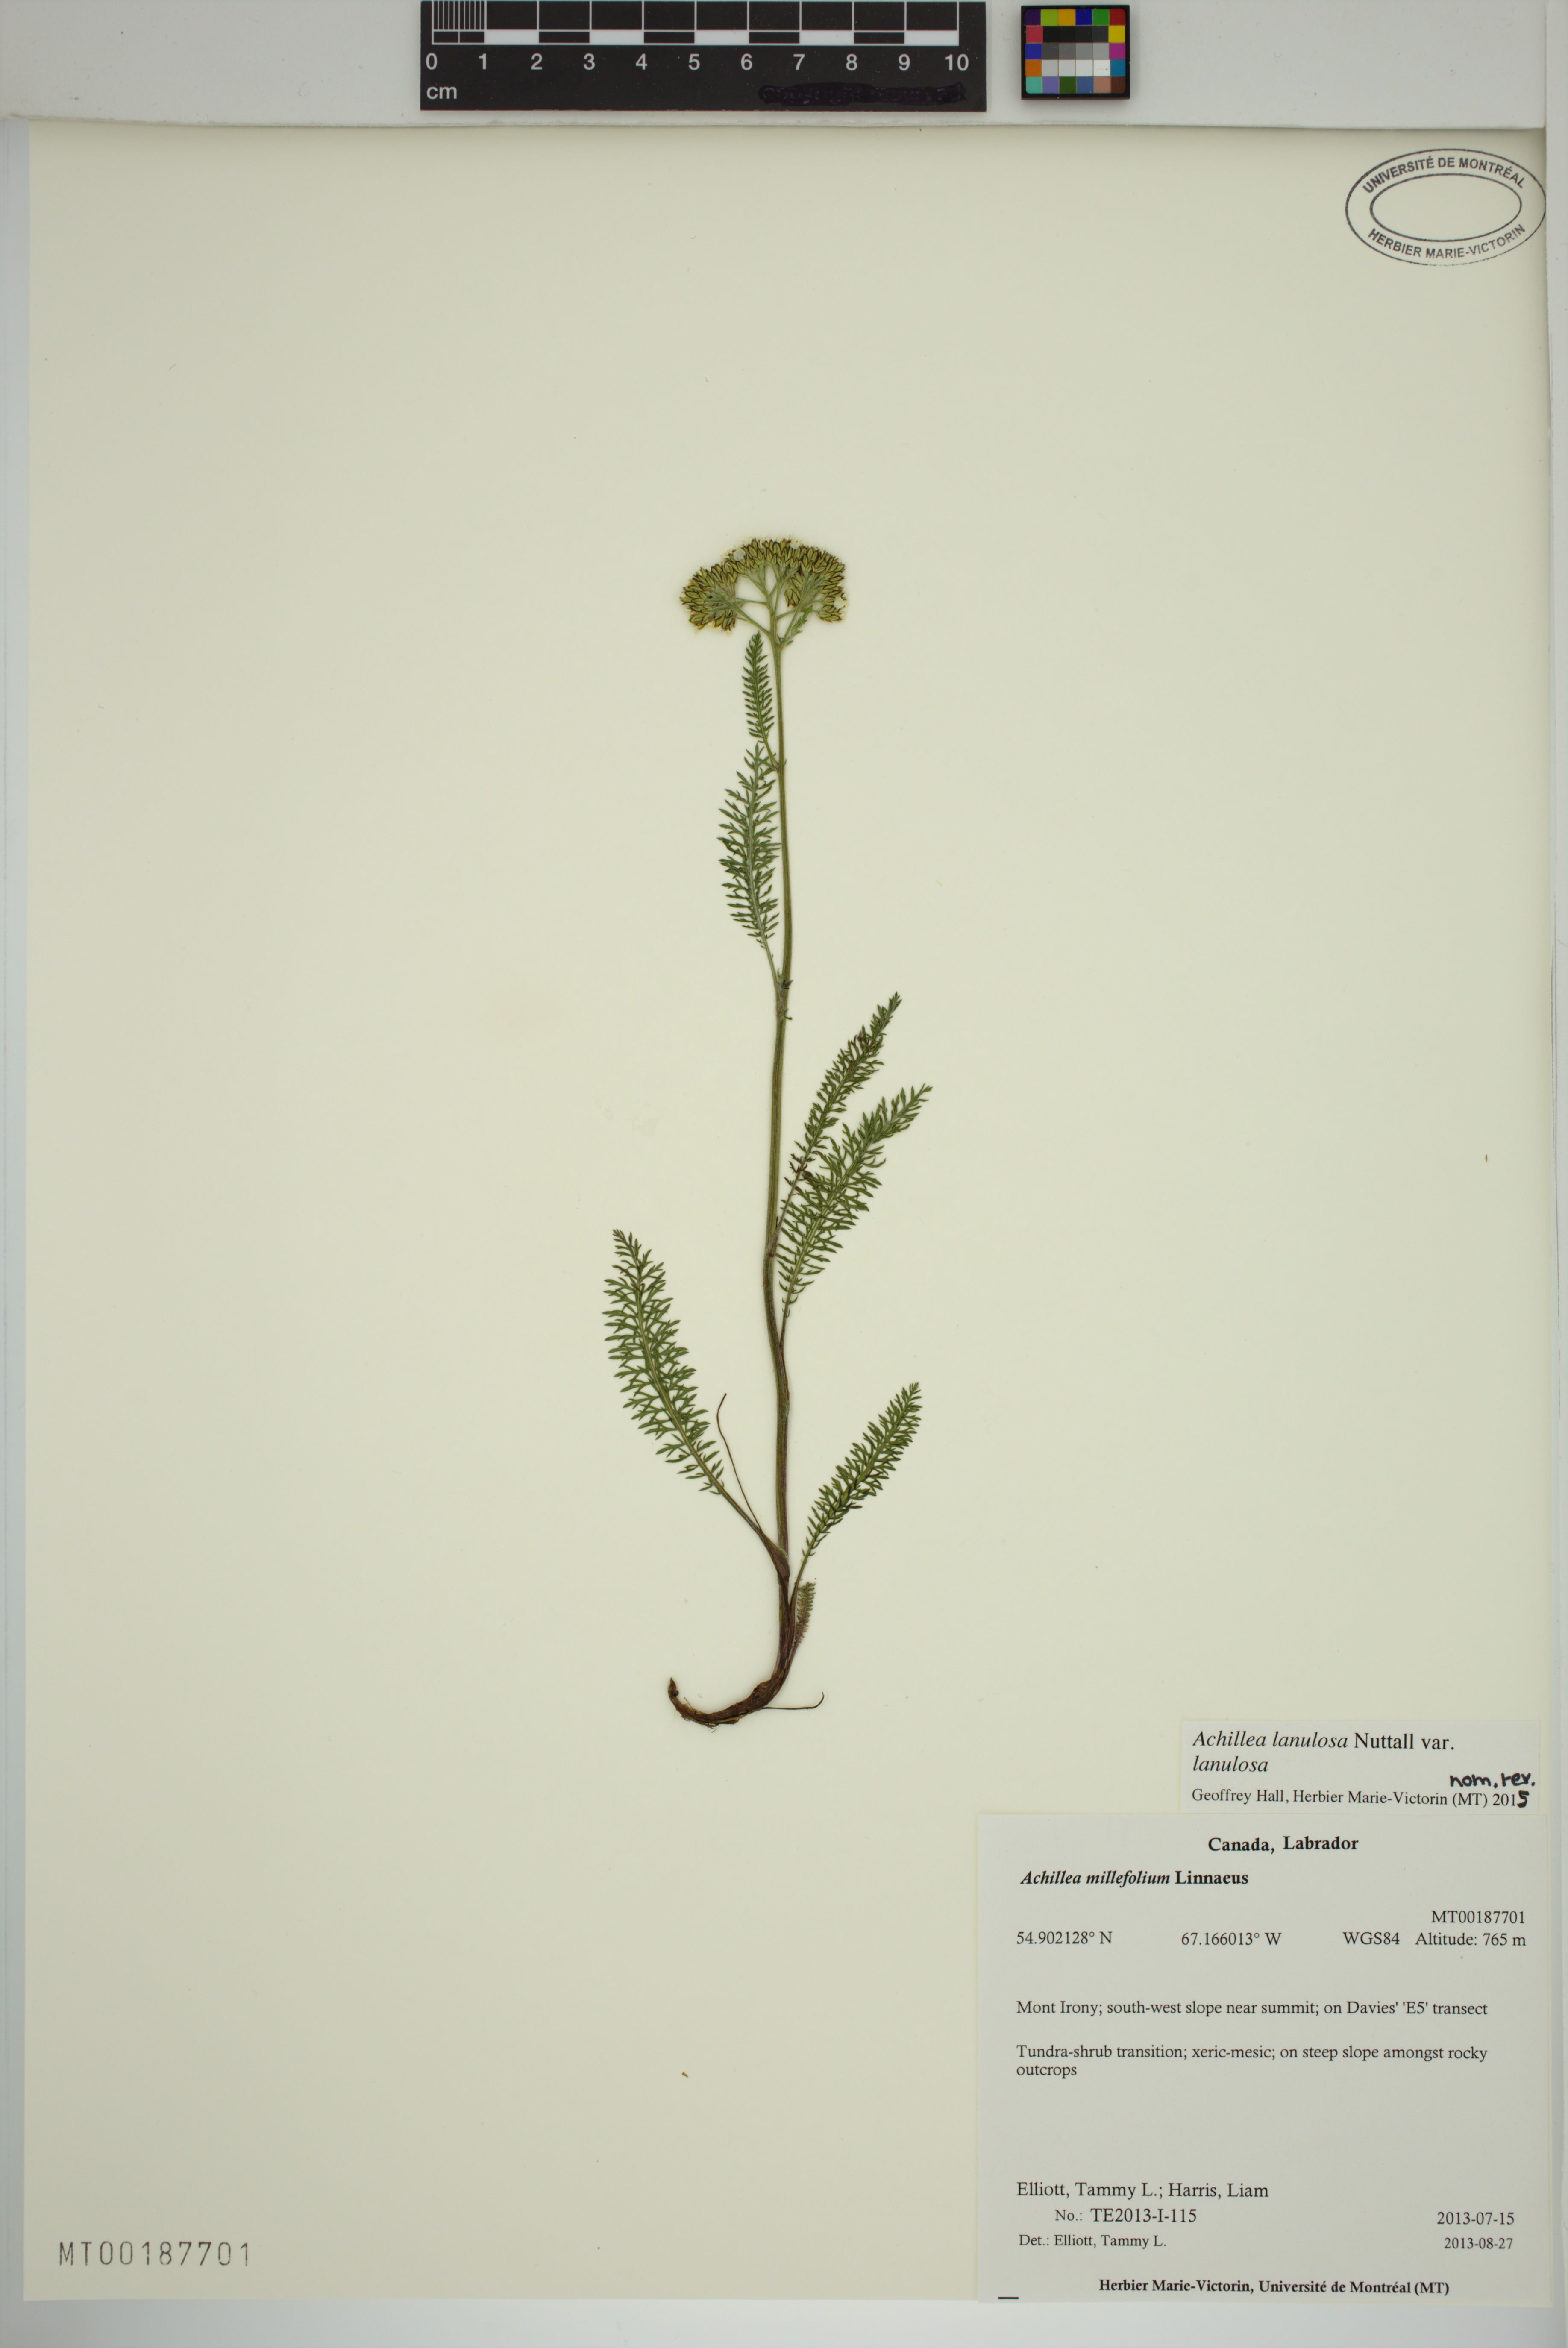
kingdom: Plantae
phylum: Tracheophyta
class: Magnoliopsida
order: Asterales
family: Asteraceae
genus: Achillea
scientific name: Achillea millefolium
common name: Yarrow
